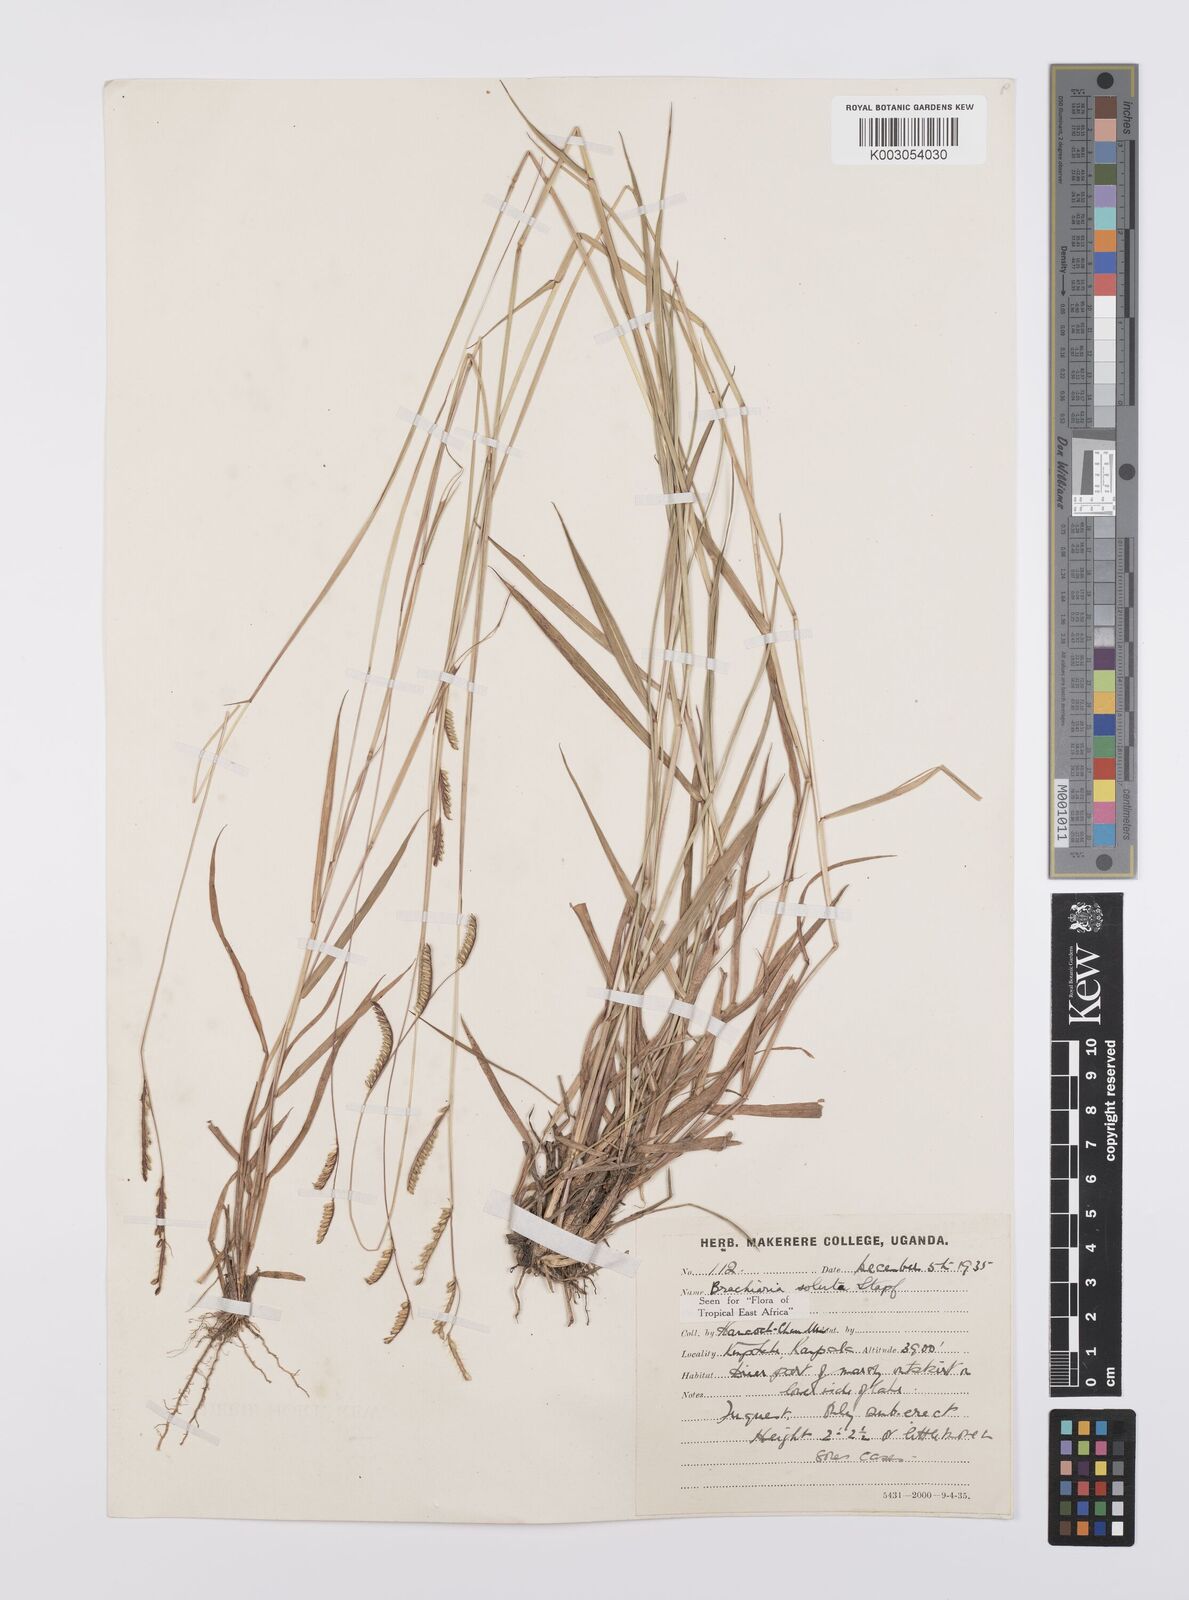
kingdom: Plantae
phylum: Tracheophyta
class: Liliopsida
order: Poales
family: Poaceae
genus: Urochloa
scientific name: Urochloa jubata
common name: Buffalograss
